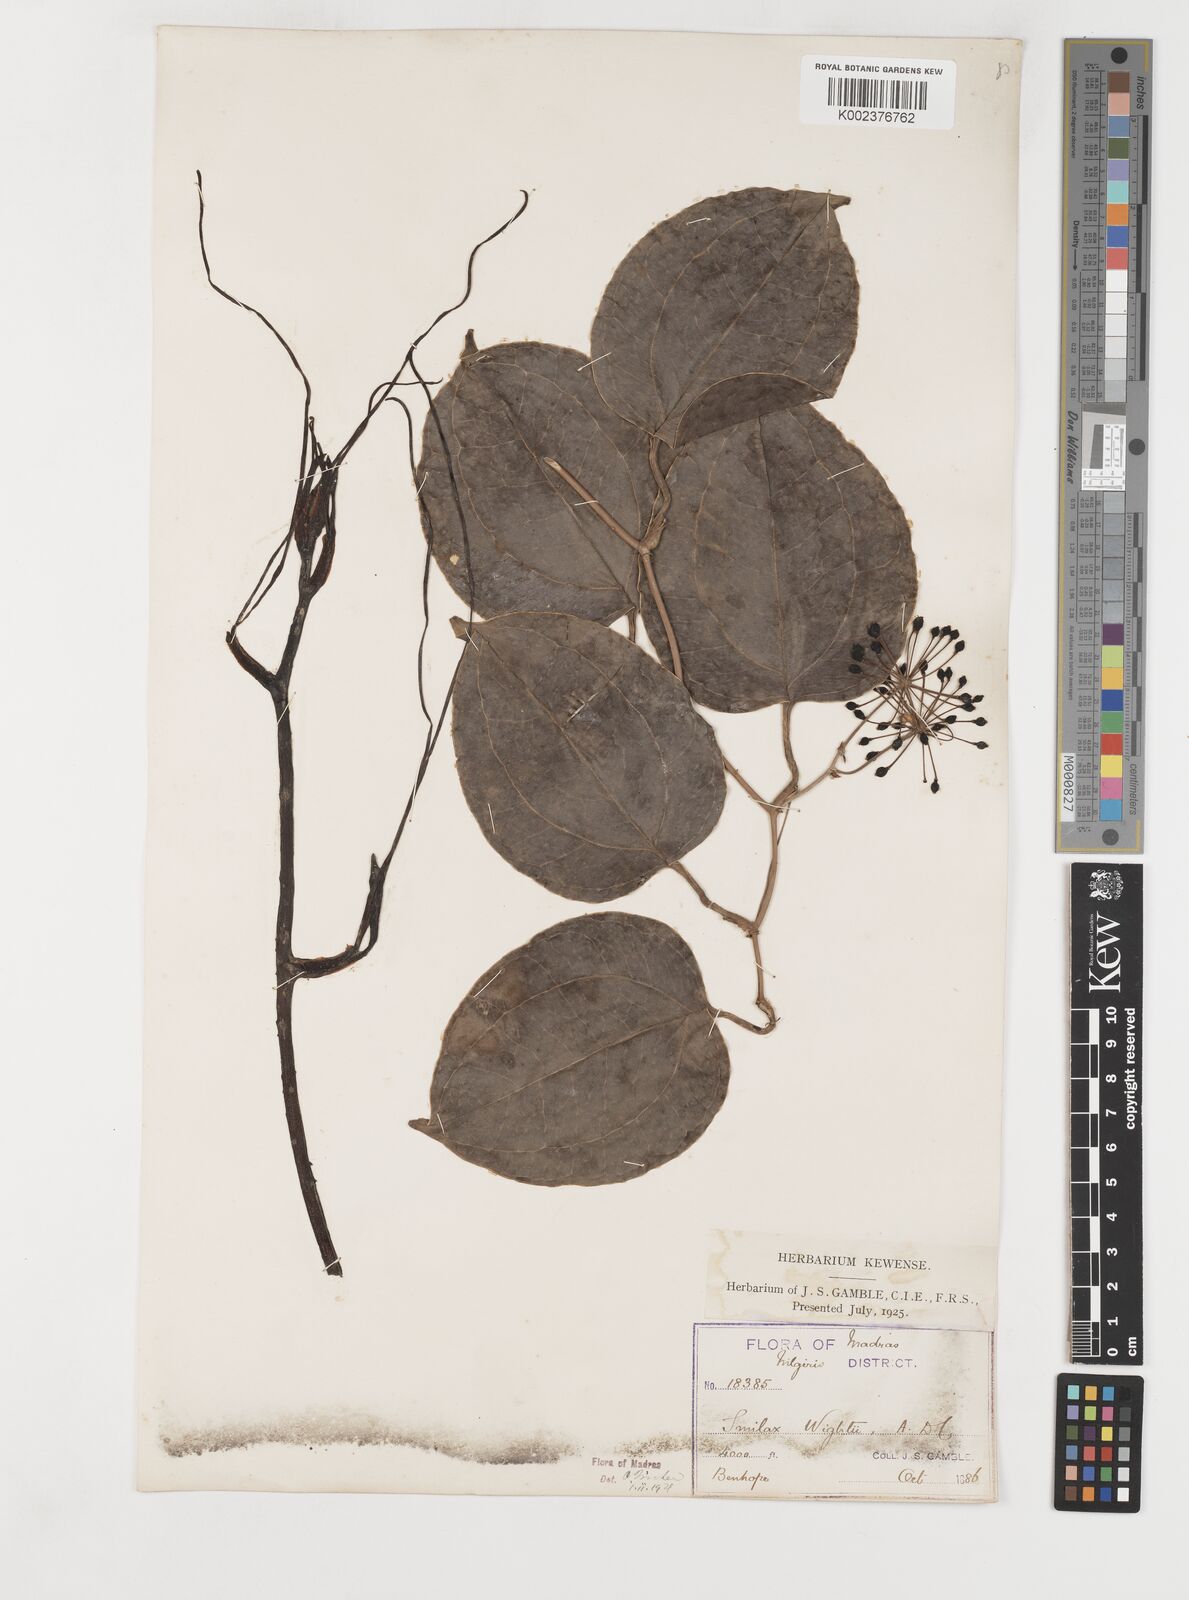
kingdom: Plantae
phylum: Tracheophyta
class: Liliopsida
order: Liliales
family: Smilacaceae
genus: Smilax
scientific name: Smilax wightii
